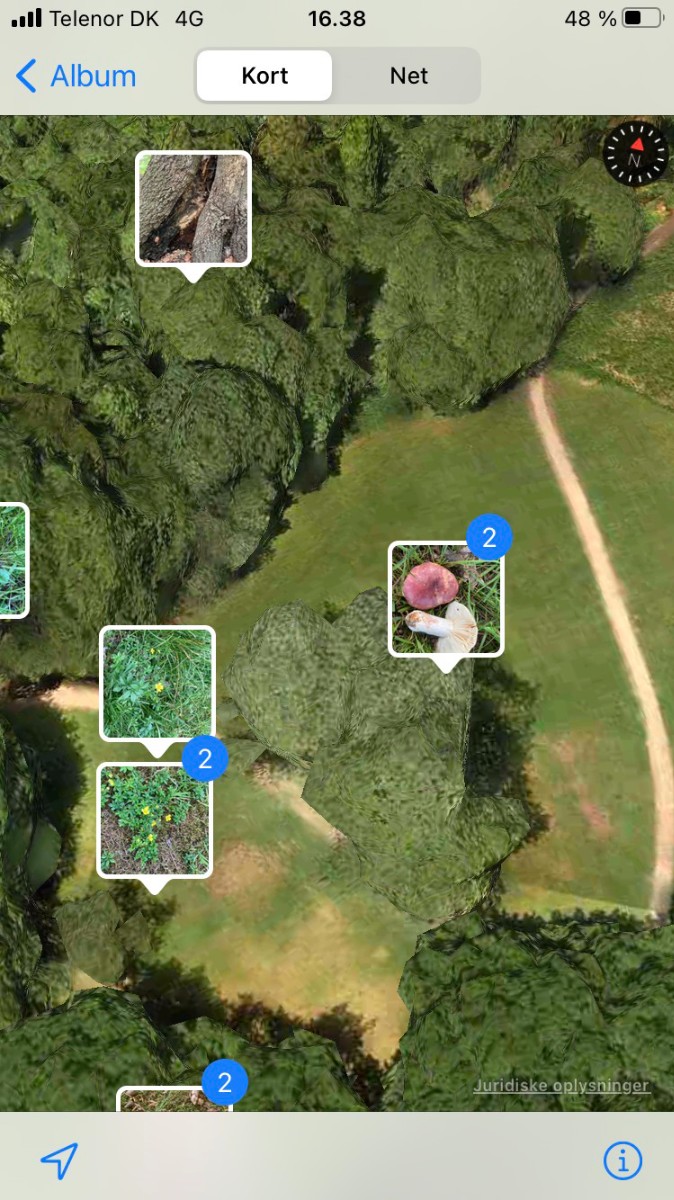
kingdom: Fungi
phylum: Basidiomycota
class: Agaricomycetes
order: Russulales
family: Russulaceae
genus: Russula
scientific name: Russula atropurpurea
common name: purpurbroget skørhat
